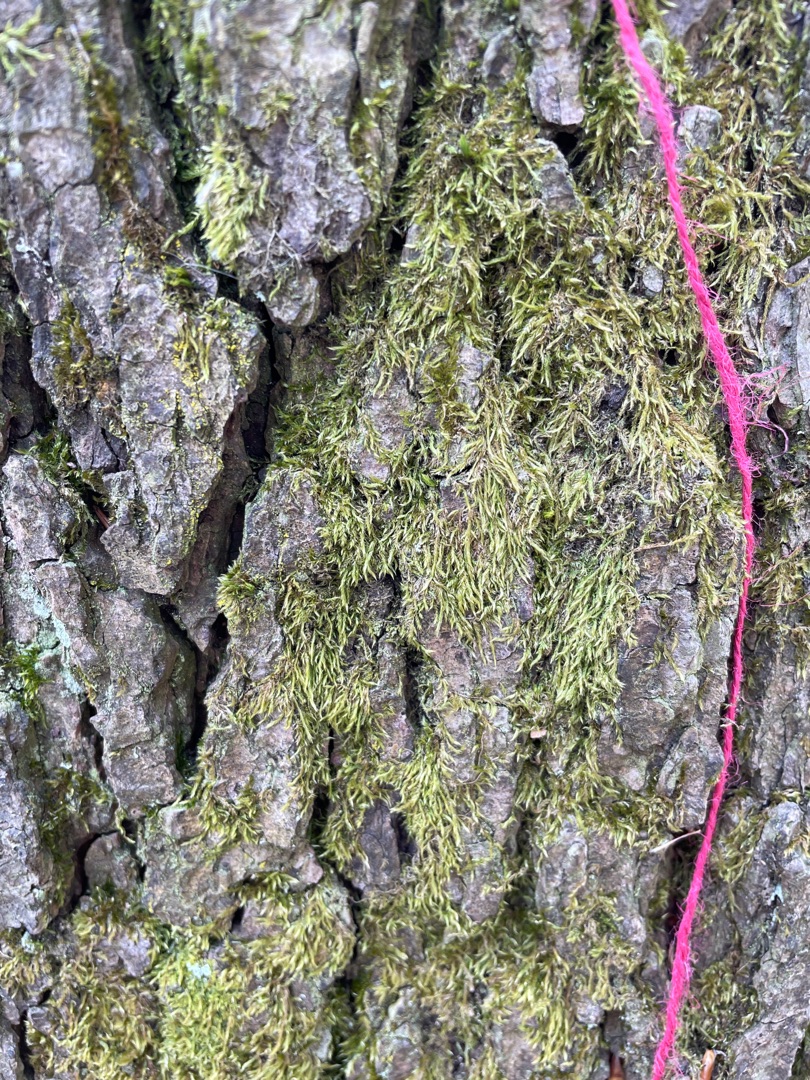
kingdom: Plantae
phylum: Bryophyta
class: Bryopsida
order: Hypnales
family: Hypnaceae
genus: Hypnum
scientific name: Hypnum
